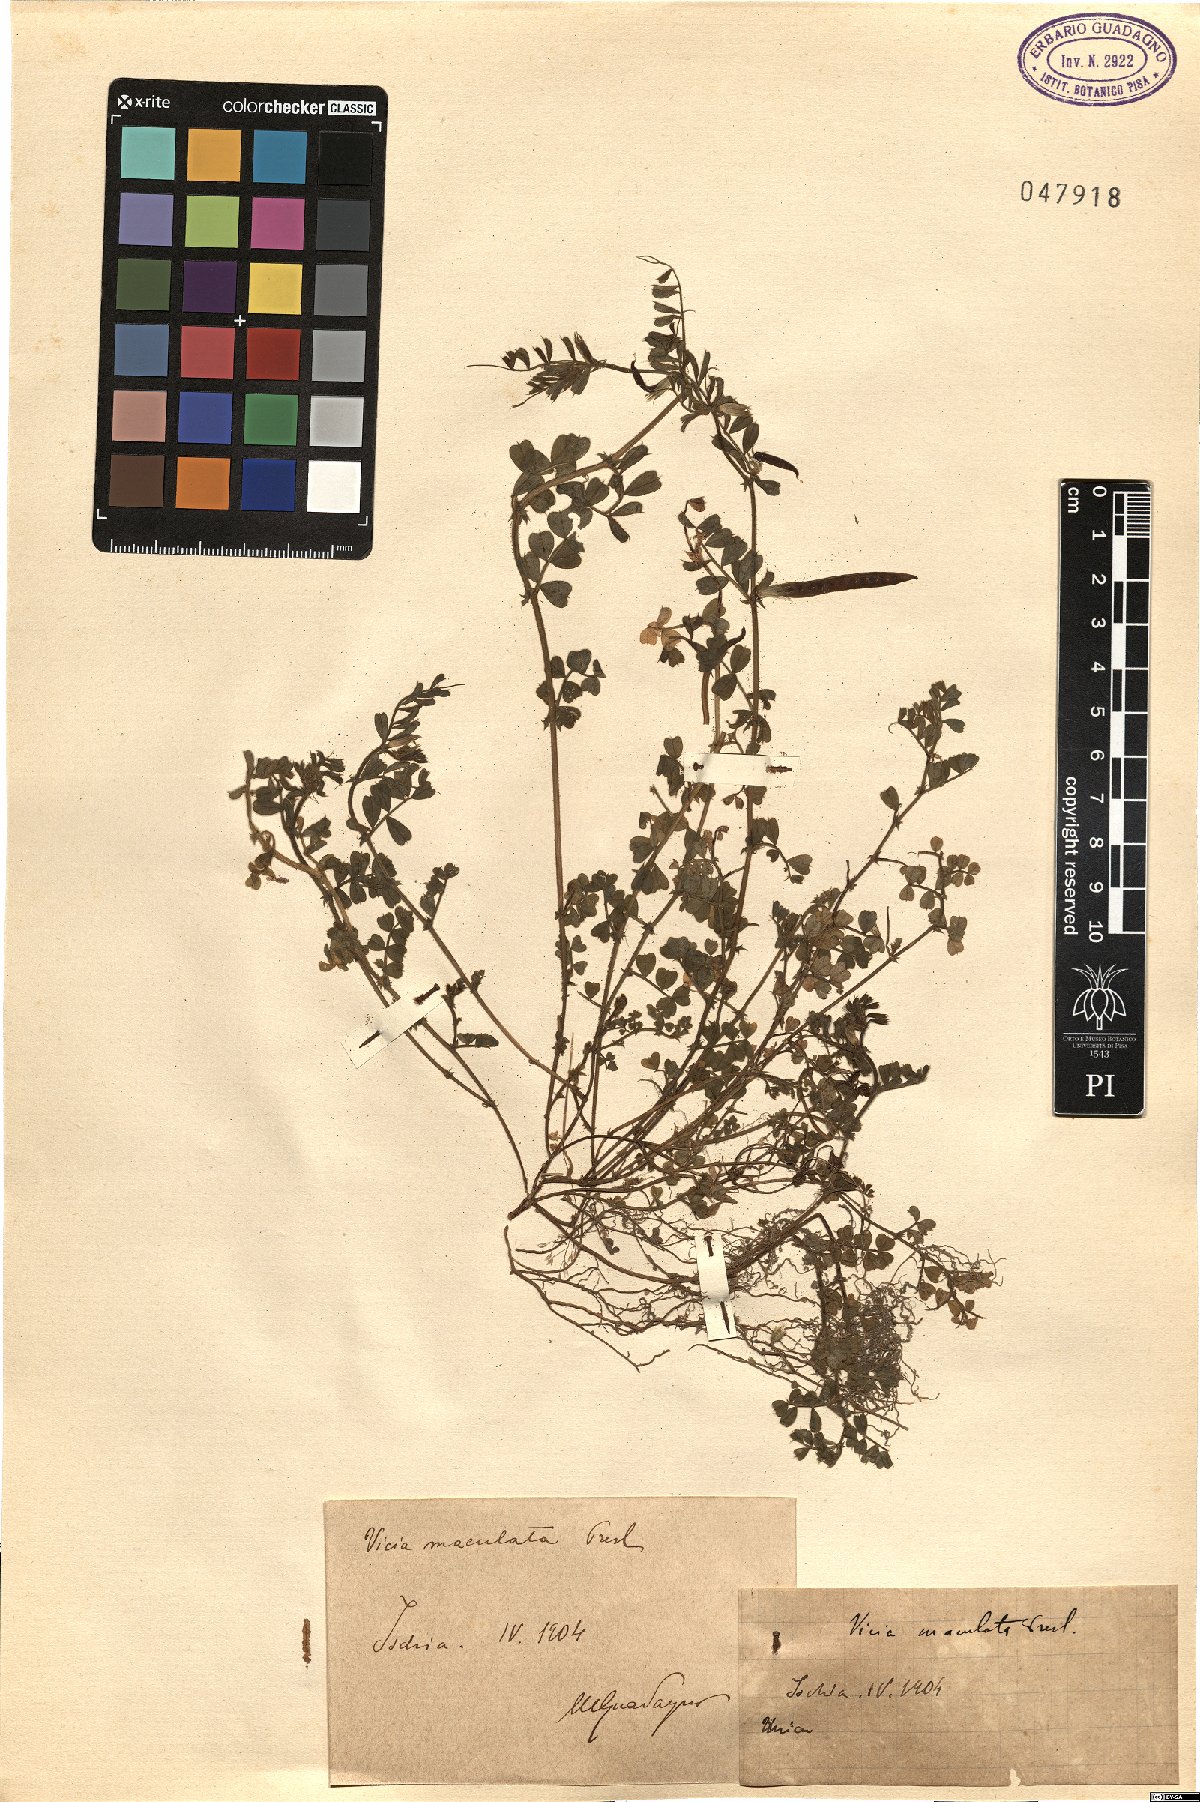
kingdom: Plantae
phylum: Tracheophyta
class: Magnoliopsida
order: Fabales
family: Fabaceae
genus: Vicia
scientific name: Vicia sativa
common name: Garden vetch
